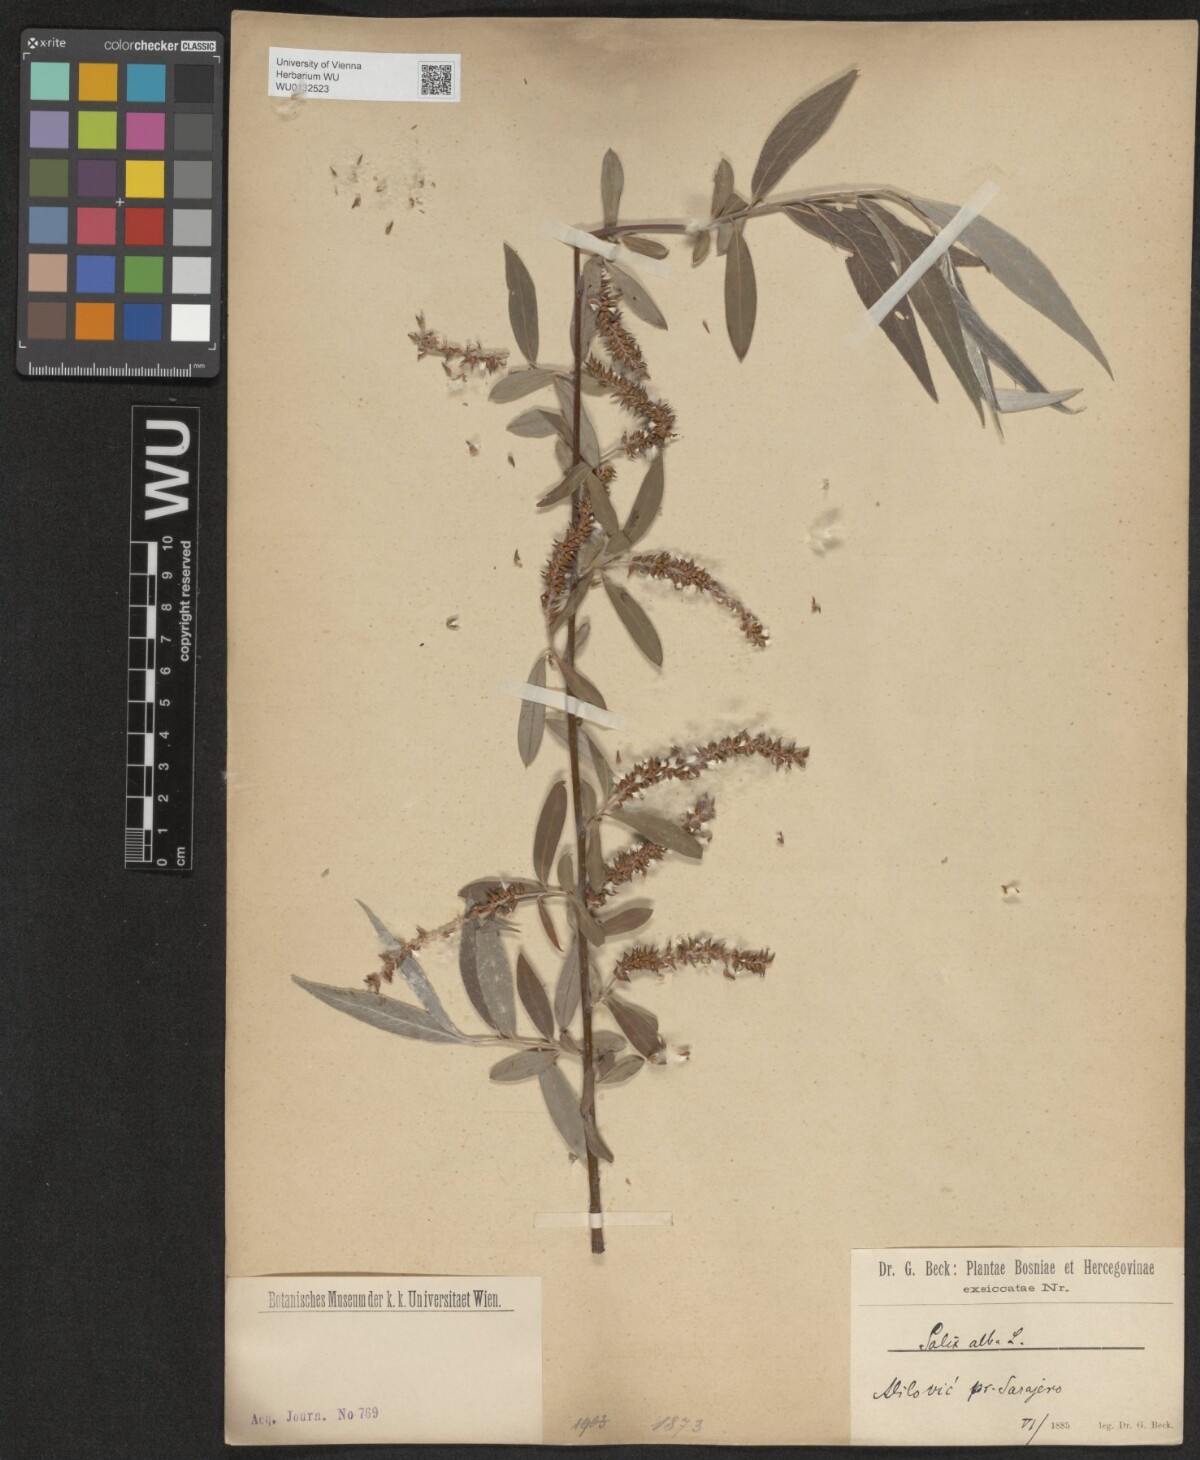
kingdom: Plantae
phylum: Tracheophyta
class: Magnoliopsida
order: Malpighiales
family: Salicaceae
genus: Salix
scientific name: Salix alba
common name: White willow
